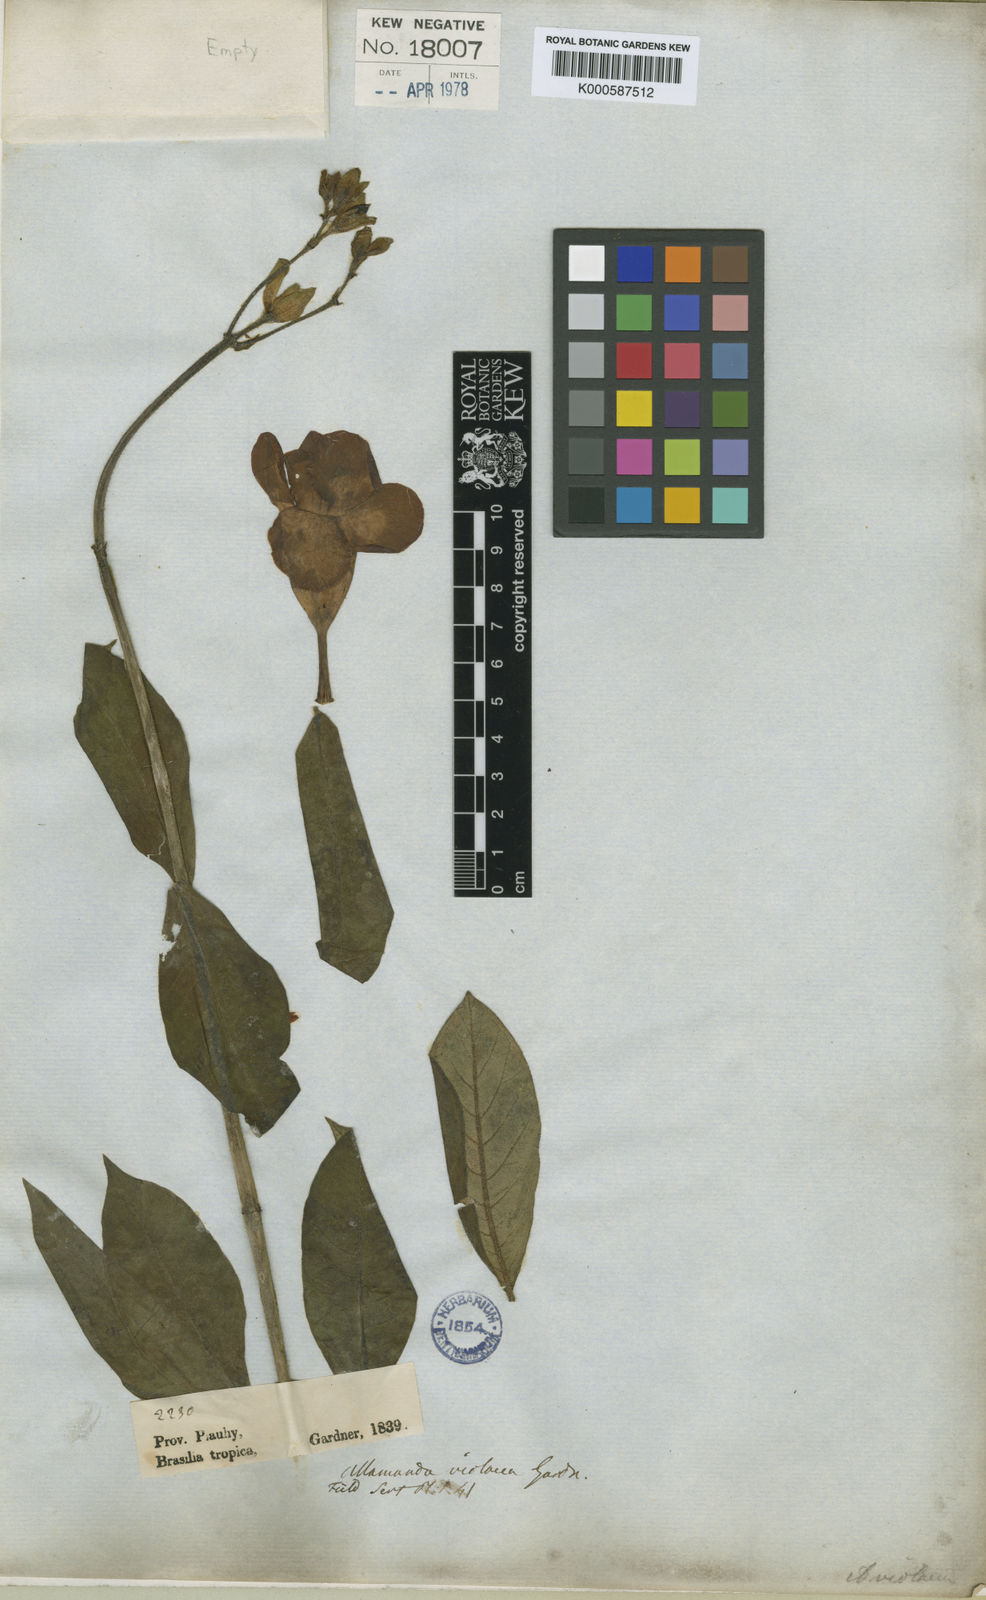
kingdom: Plantae
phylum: Tracheophyta
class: Magnoliopsida
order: Gentianales
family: Apocynaceae
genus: Allamanda
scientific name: Allamanda blanchetii
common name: Purple allamanda
